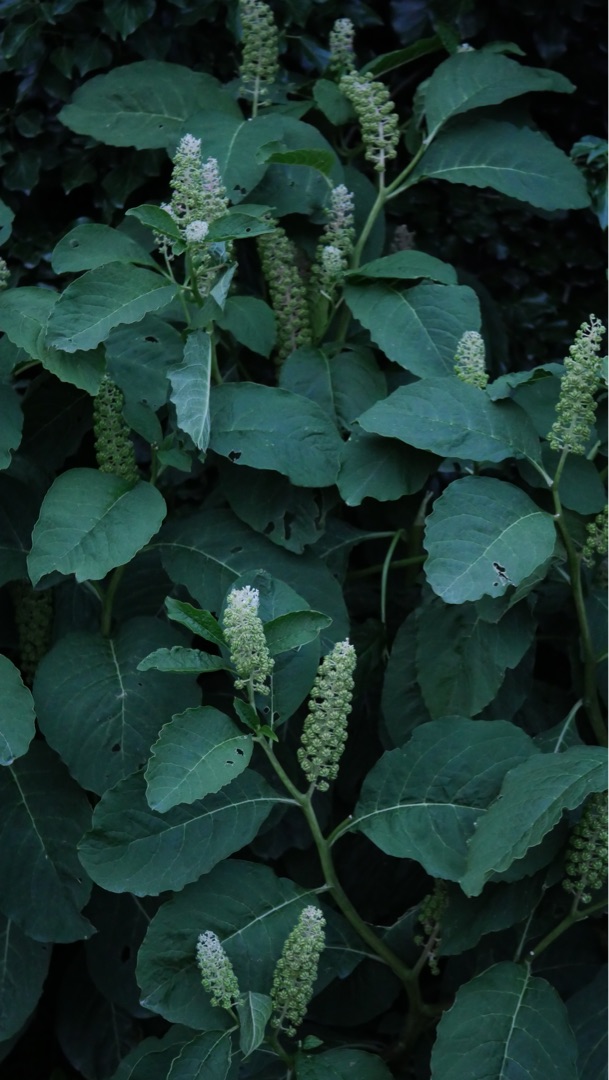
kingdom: Plantae
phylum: Tracheophyta
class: Magnoliopsida
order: Caryophyllales
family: Phytolaccaceae
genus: Phytolacca
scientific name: Phytolacca acinosa
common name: Asiatisk kermesbær
